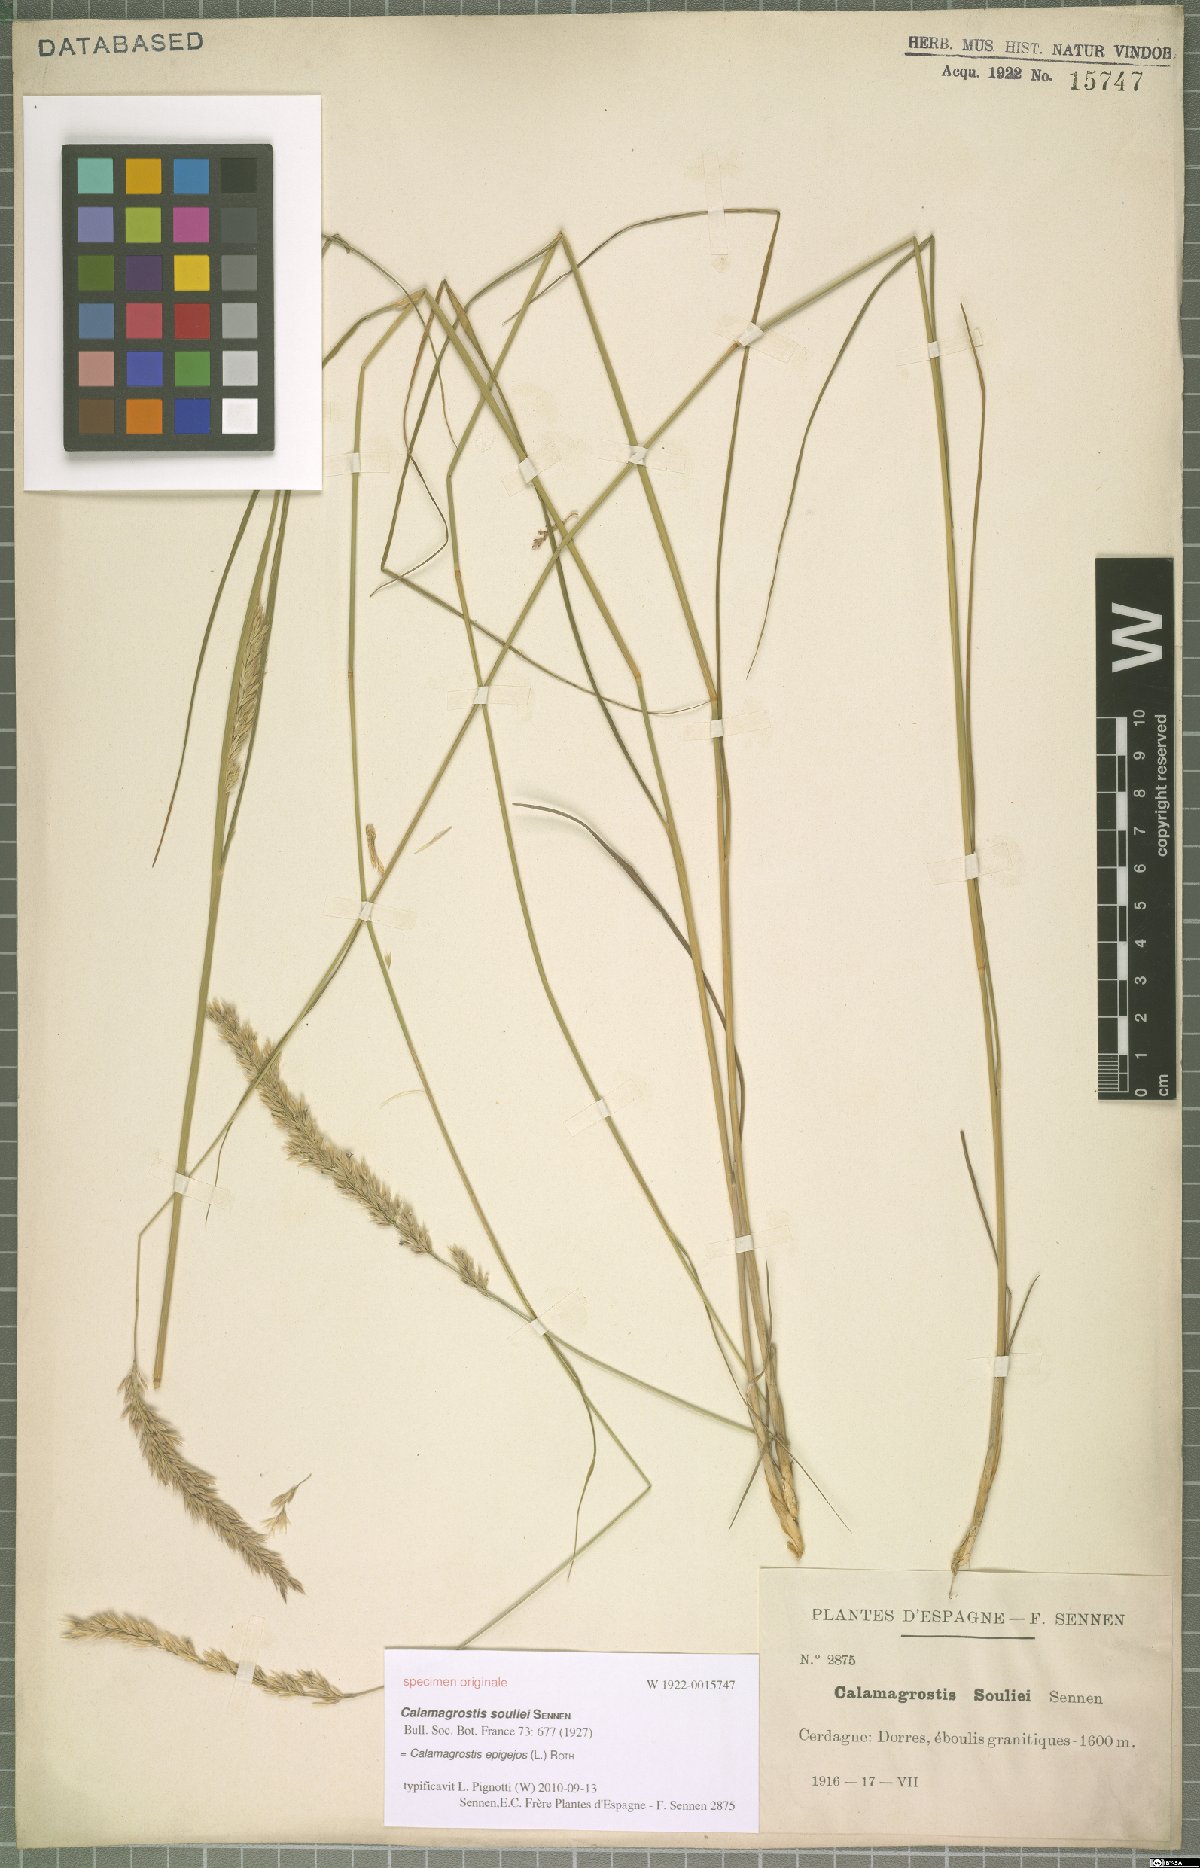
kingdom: Plantae
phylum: Tracheophyta
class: Liliopsida
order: Poales
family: Poaceae
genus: Calamagrostis
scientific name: Calamagrostis arundinacea
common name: Metskastik
